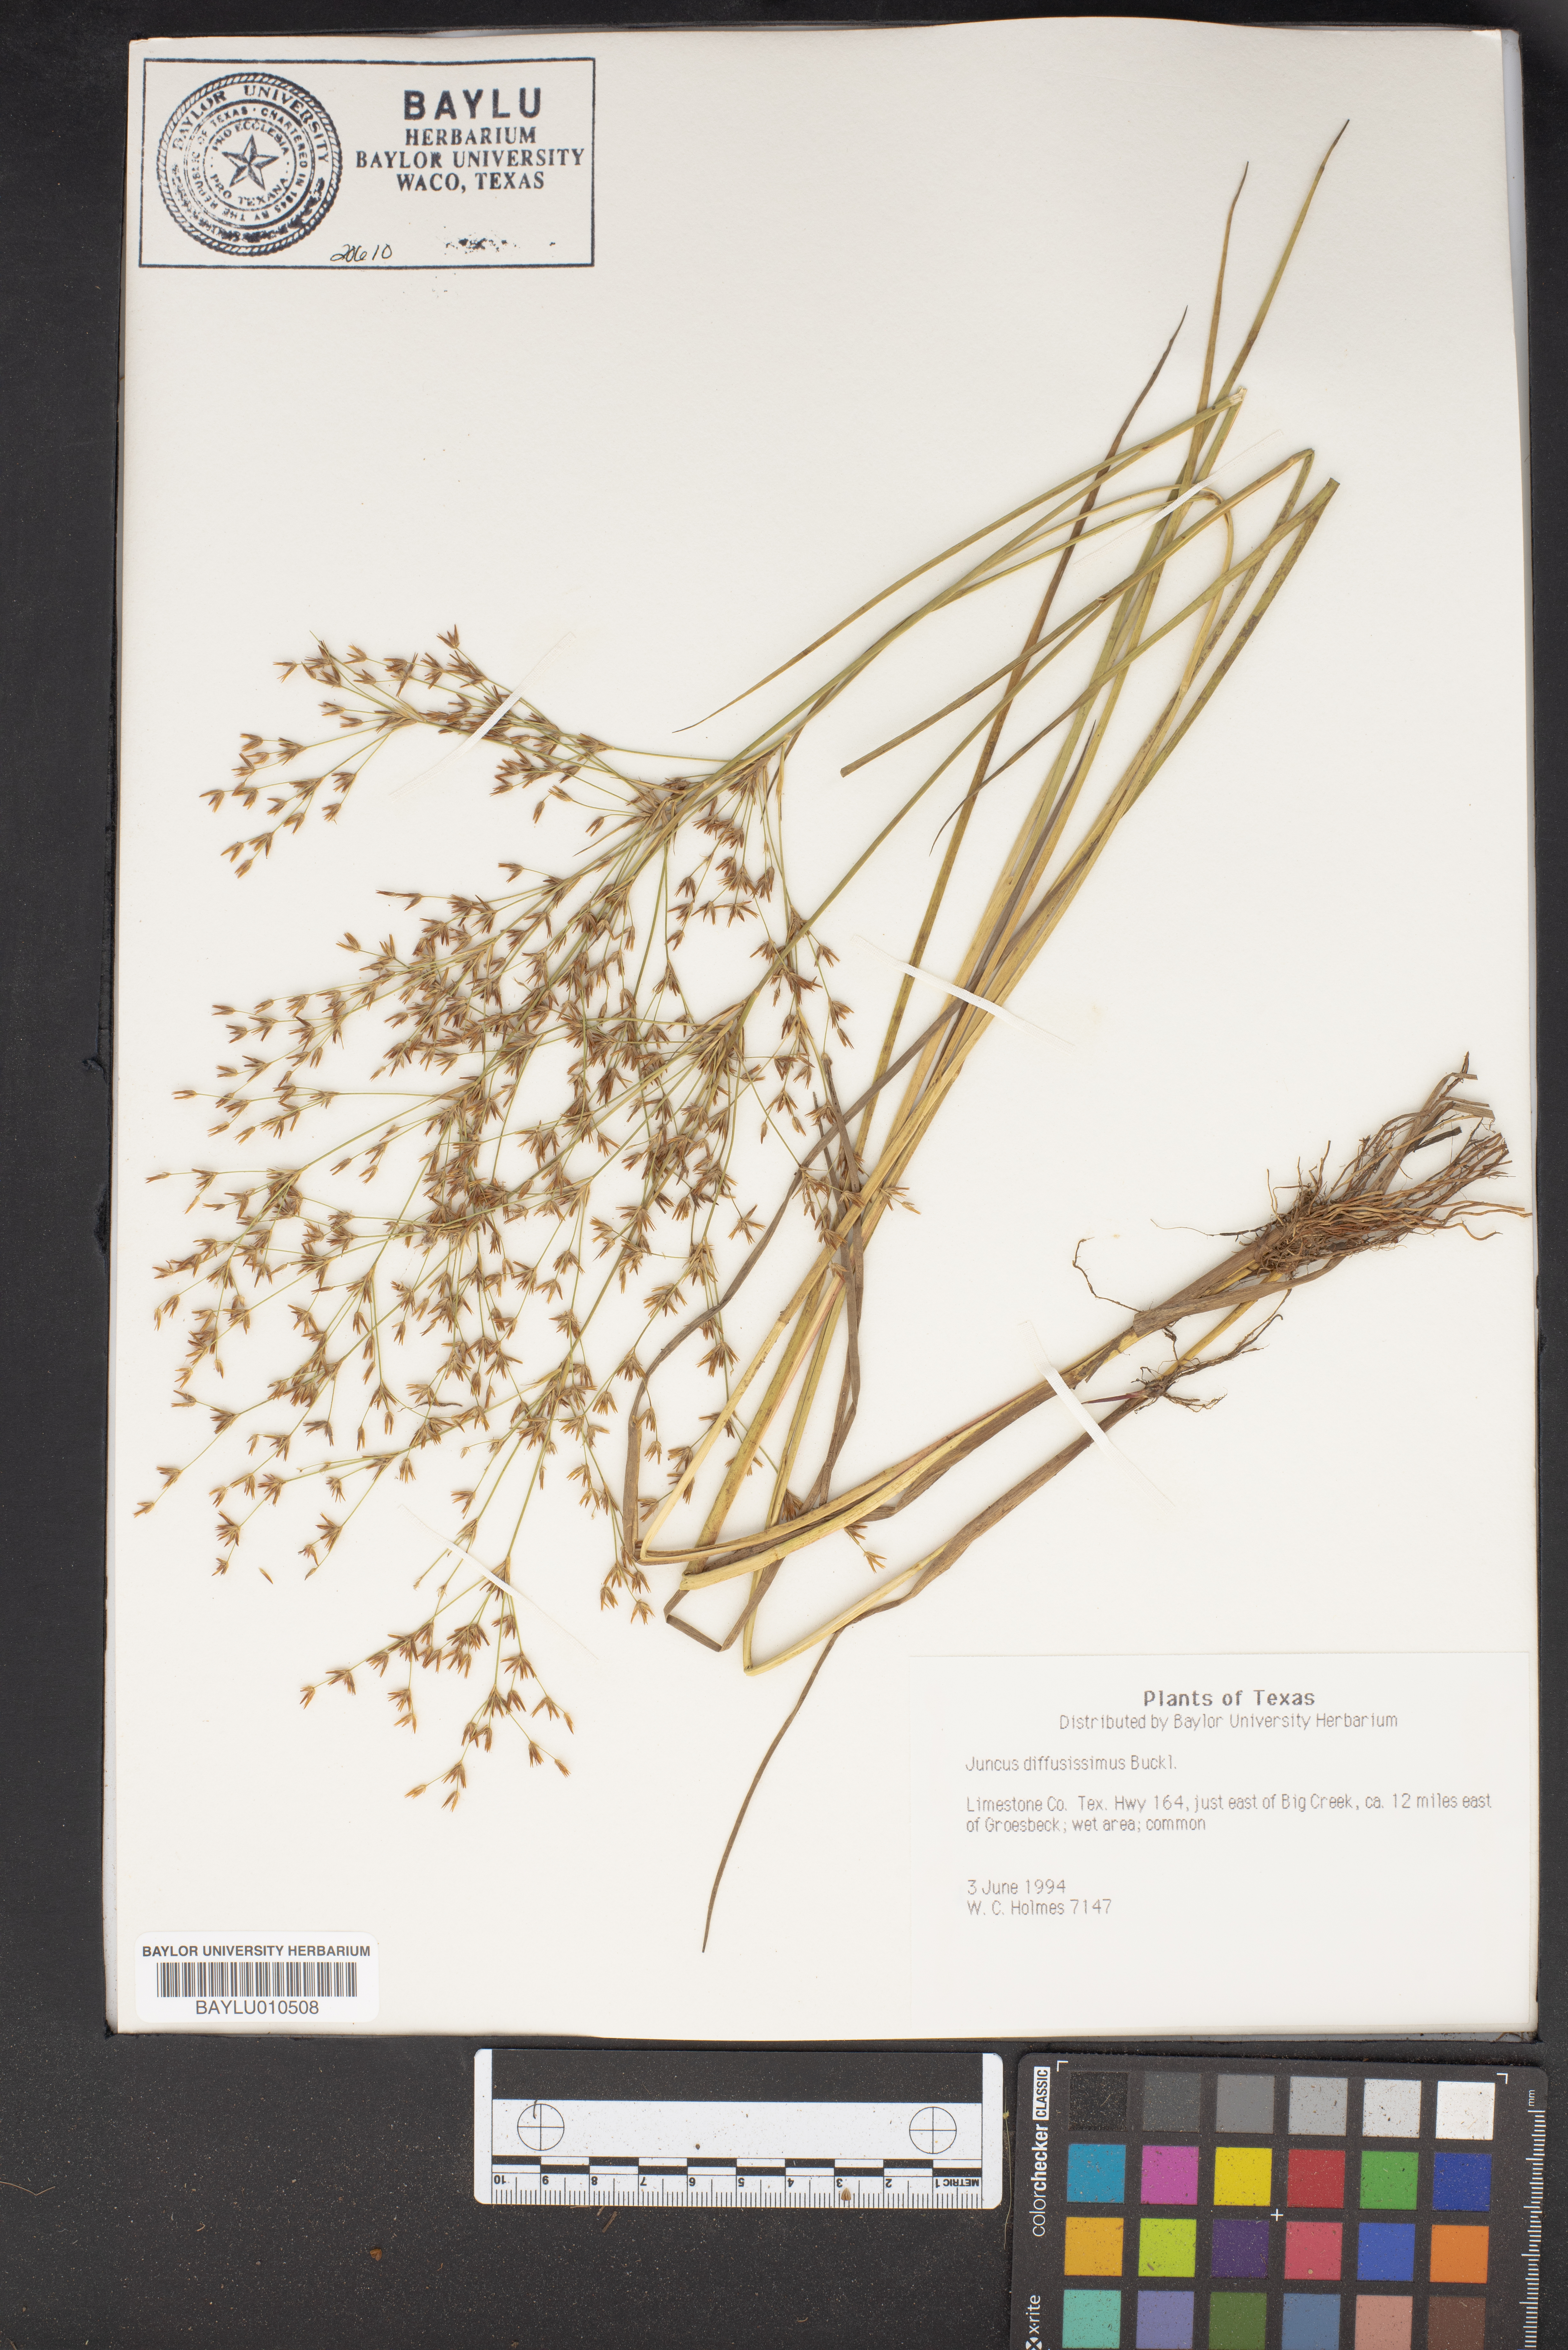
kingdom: Plantae
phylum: Tracheophyta
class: Liliopsida
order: Poales
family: Juncaceae
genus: Juncus
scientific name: Juncus diffusissimus
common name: Slimpod rush
